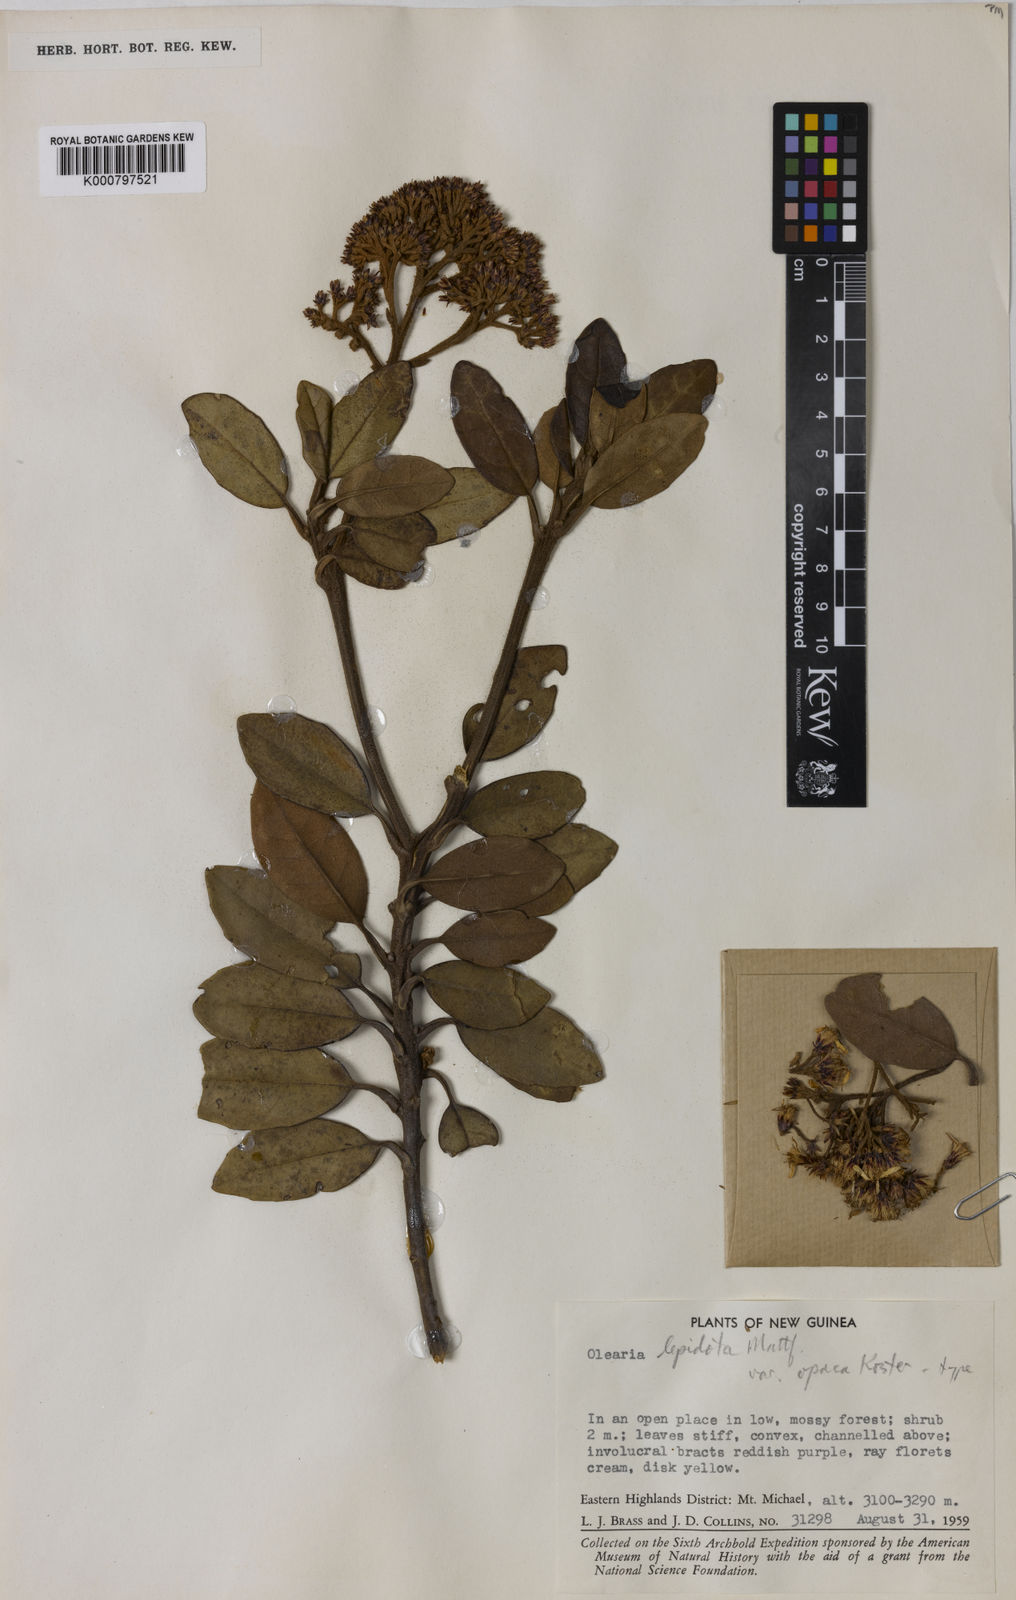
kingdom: Plantae
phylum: Tracheophyta
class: Magnoliopsida
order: Asterales
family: Asteraceae
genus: Olearia
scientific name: Olearia lepidota
